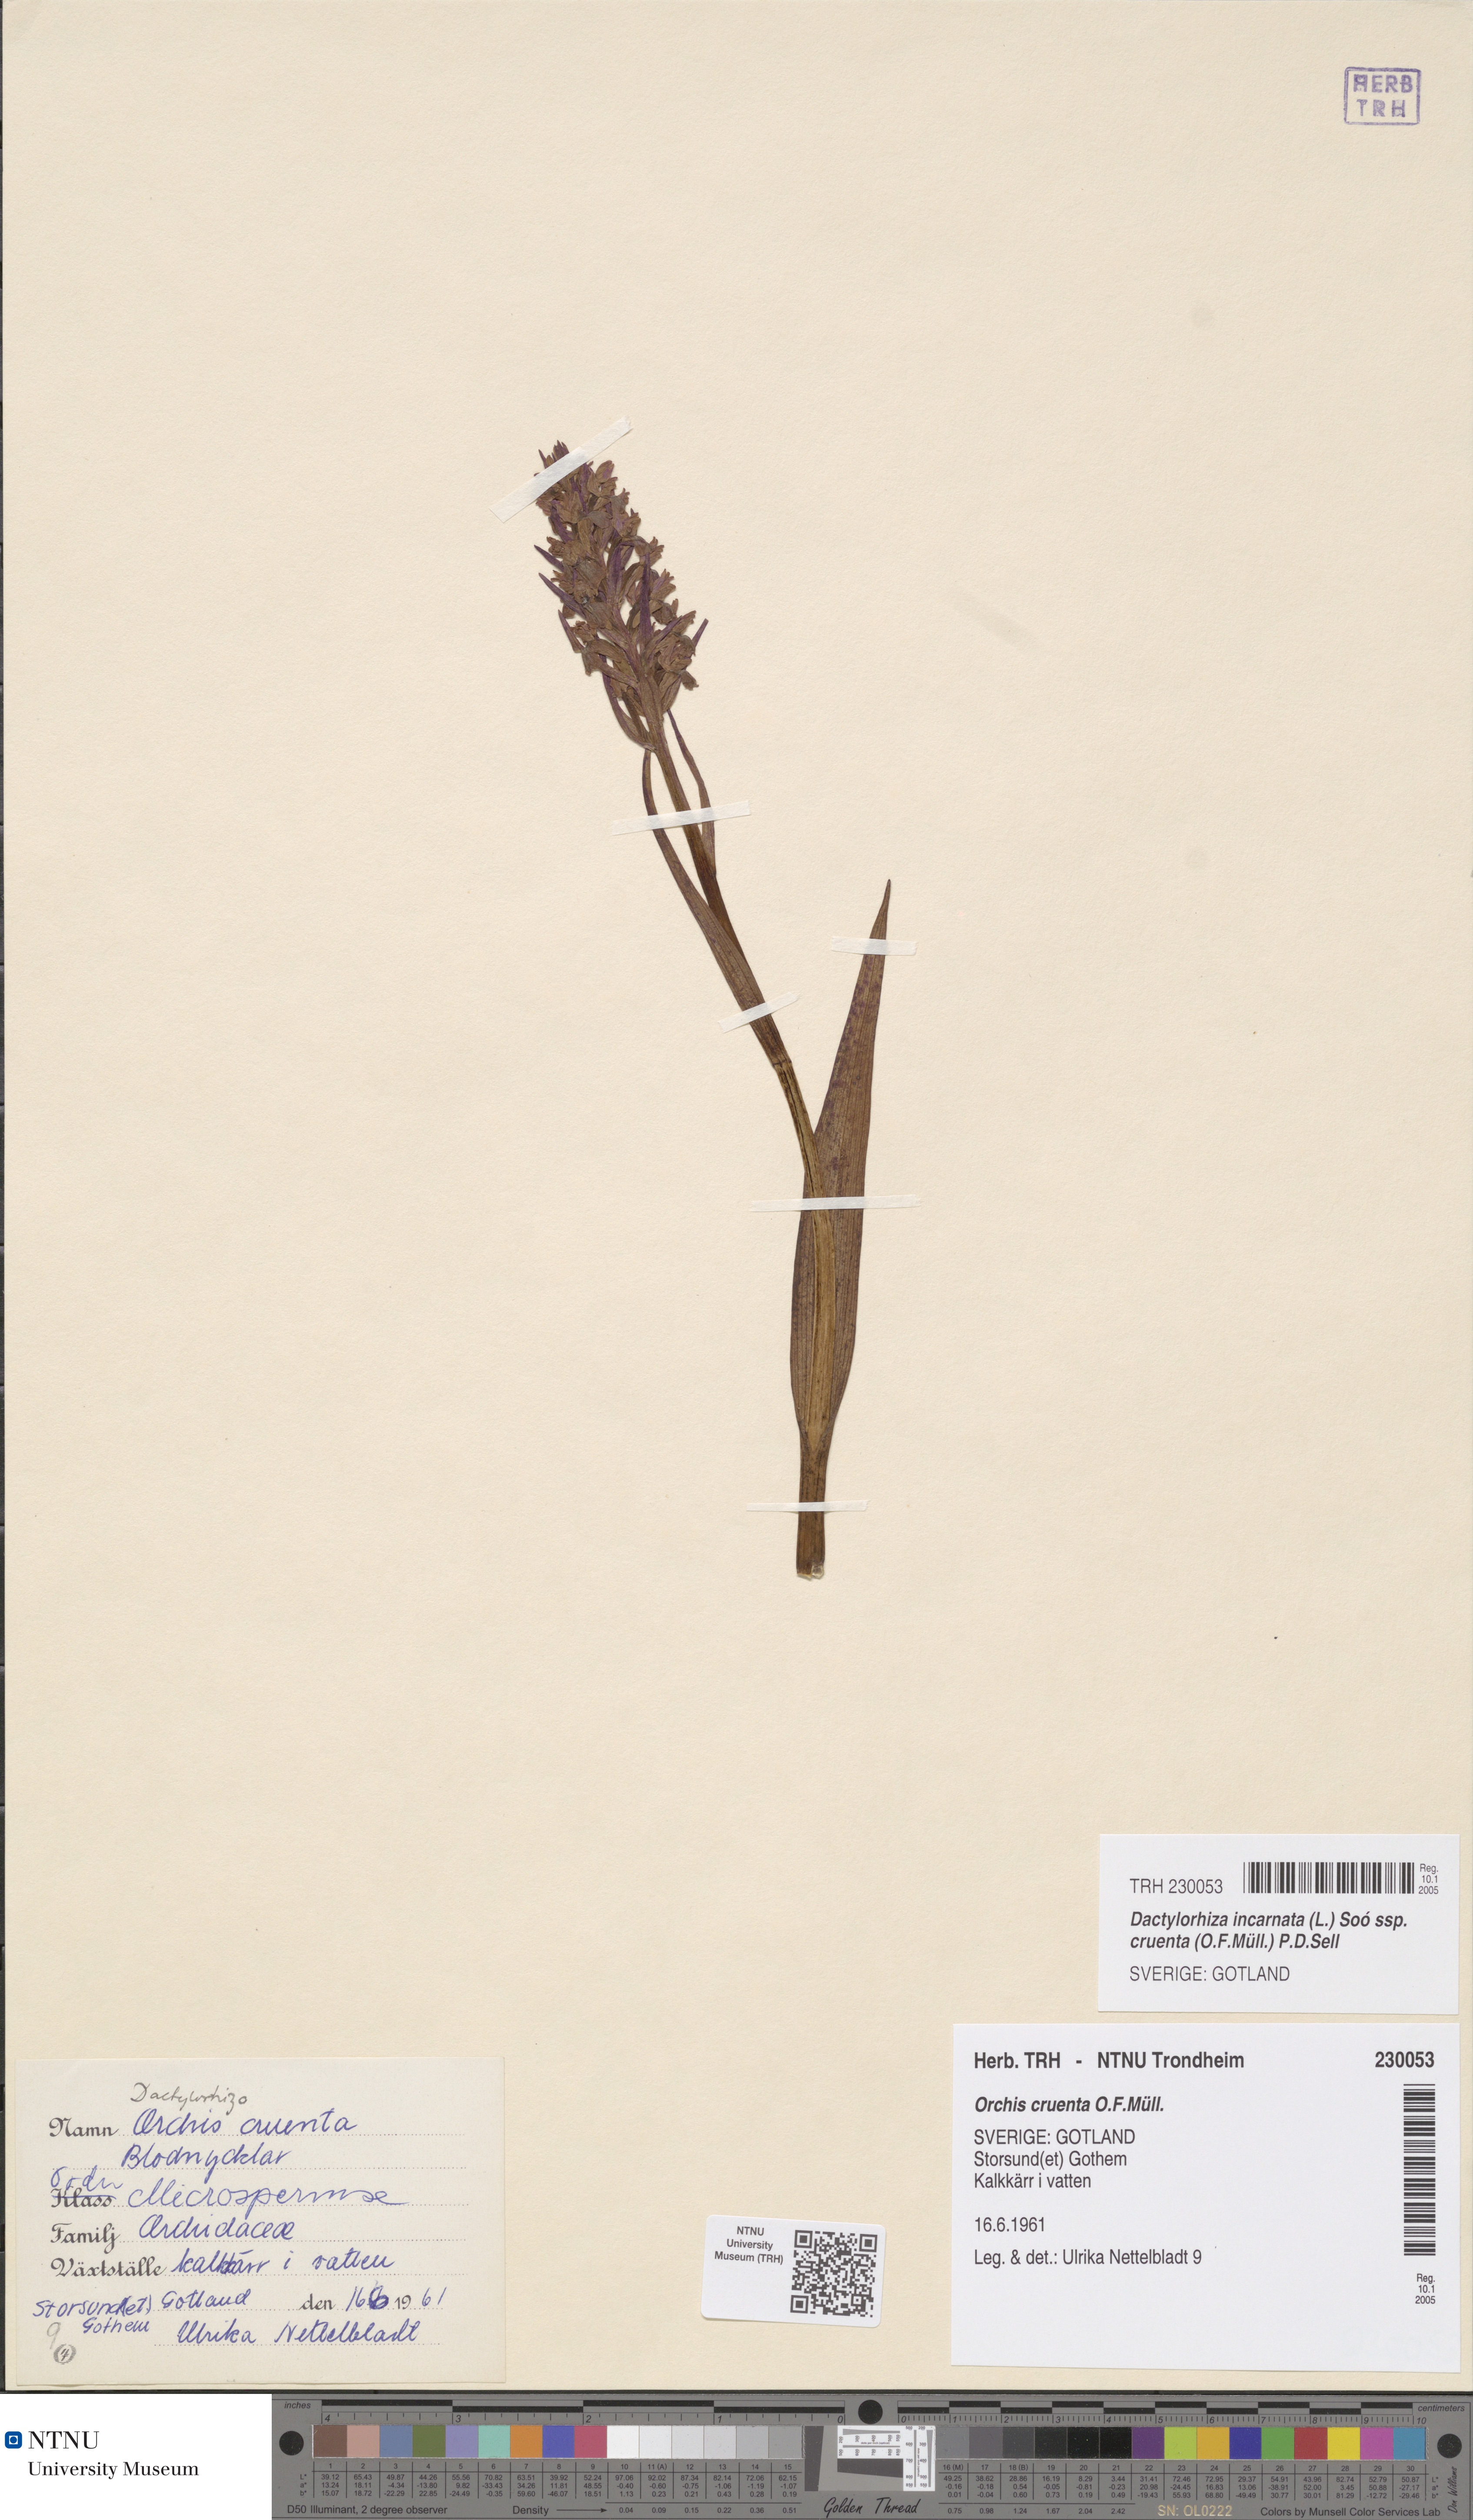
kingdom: Plantae
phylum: Tracheophyta
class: Liliopsida
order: Asparagales
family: Orchidaceae
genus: Dactylorhiza
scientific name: Dactylorhiza incarnata
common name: Early marsh-orchid
